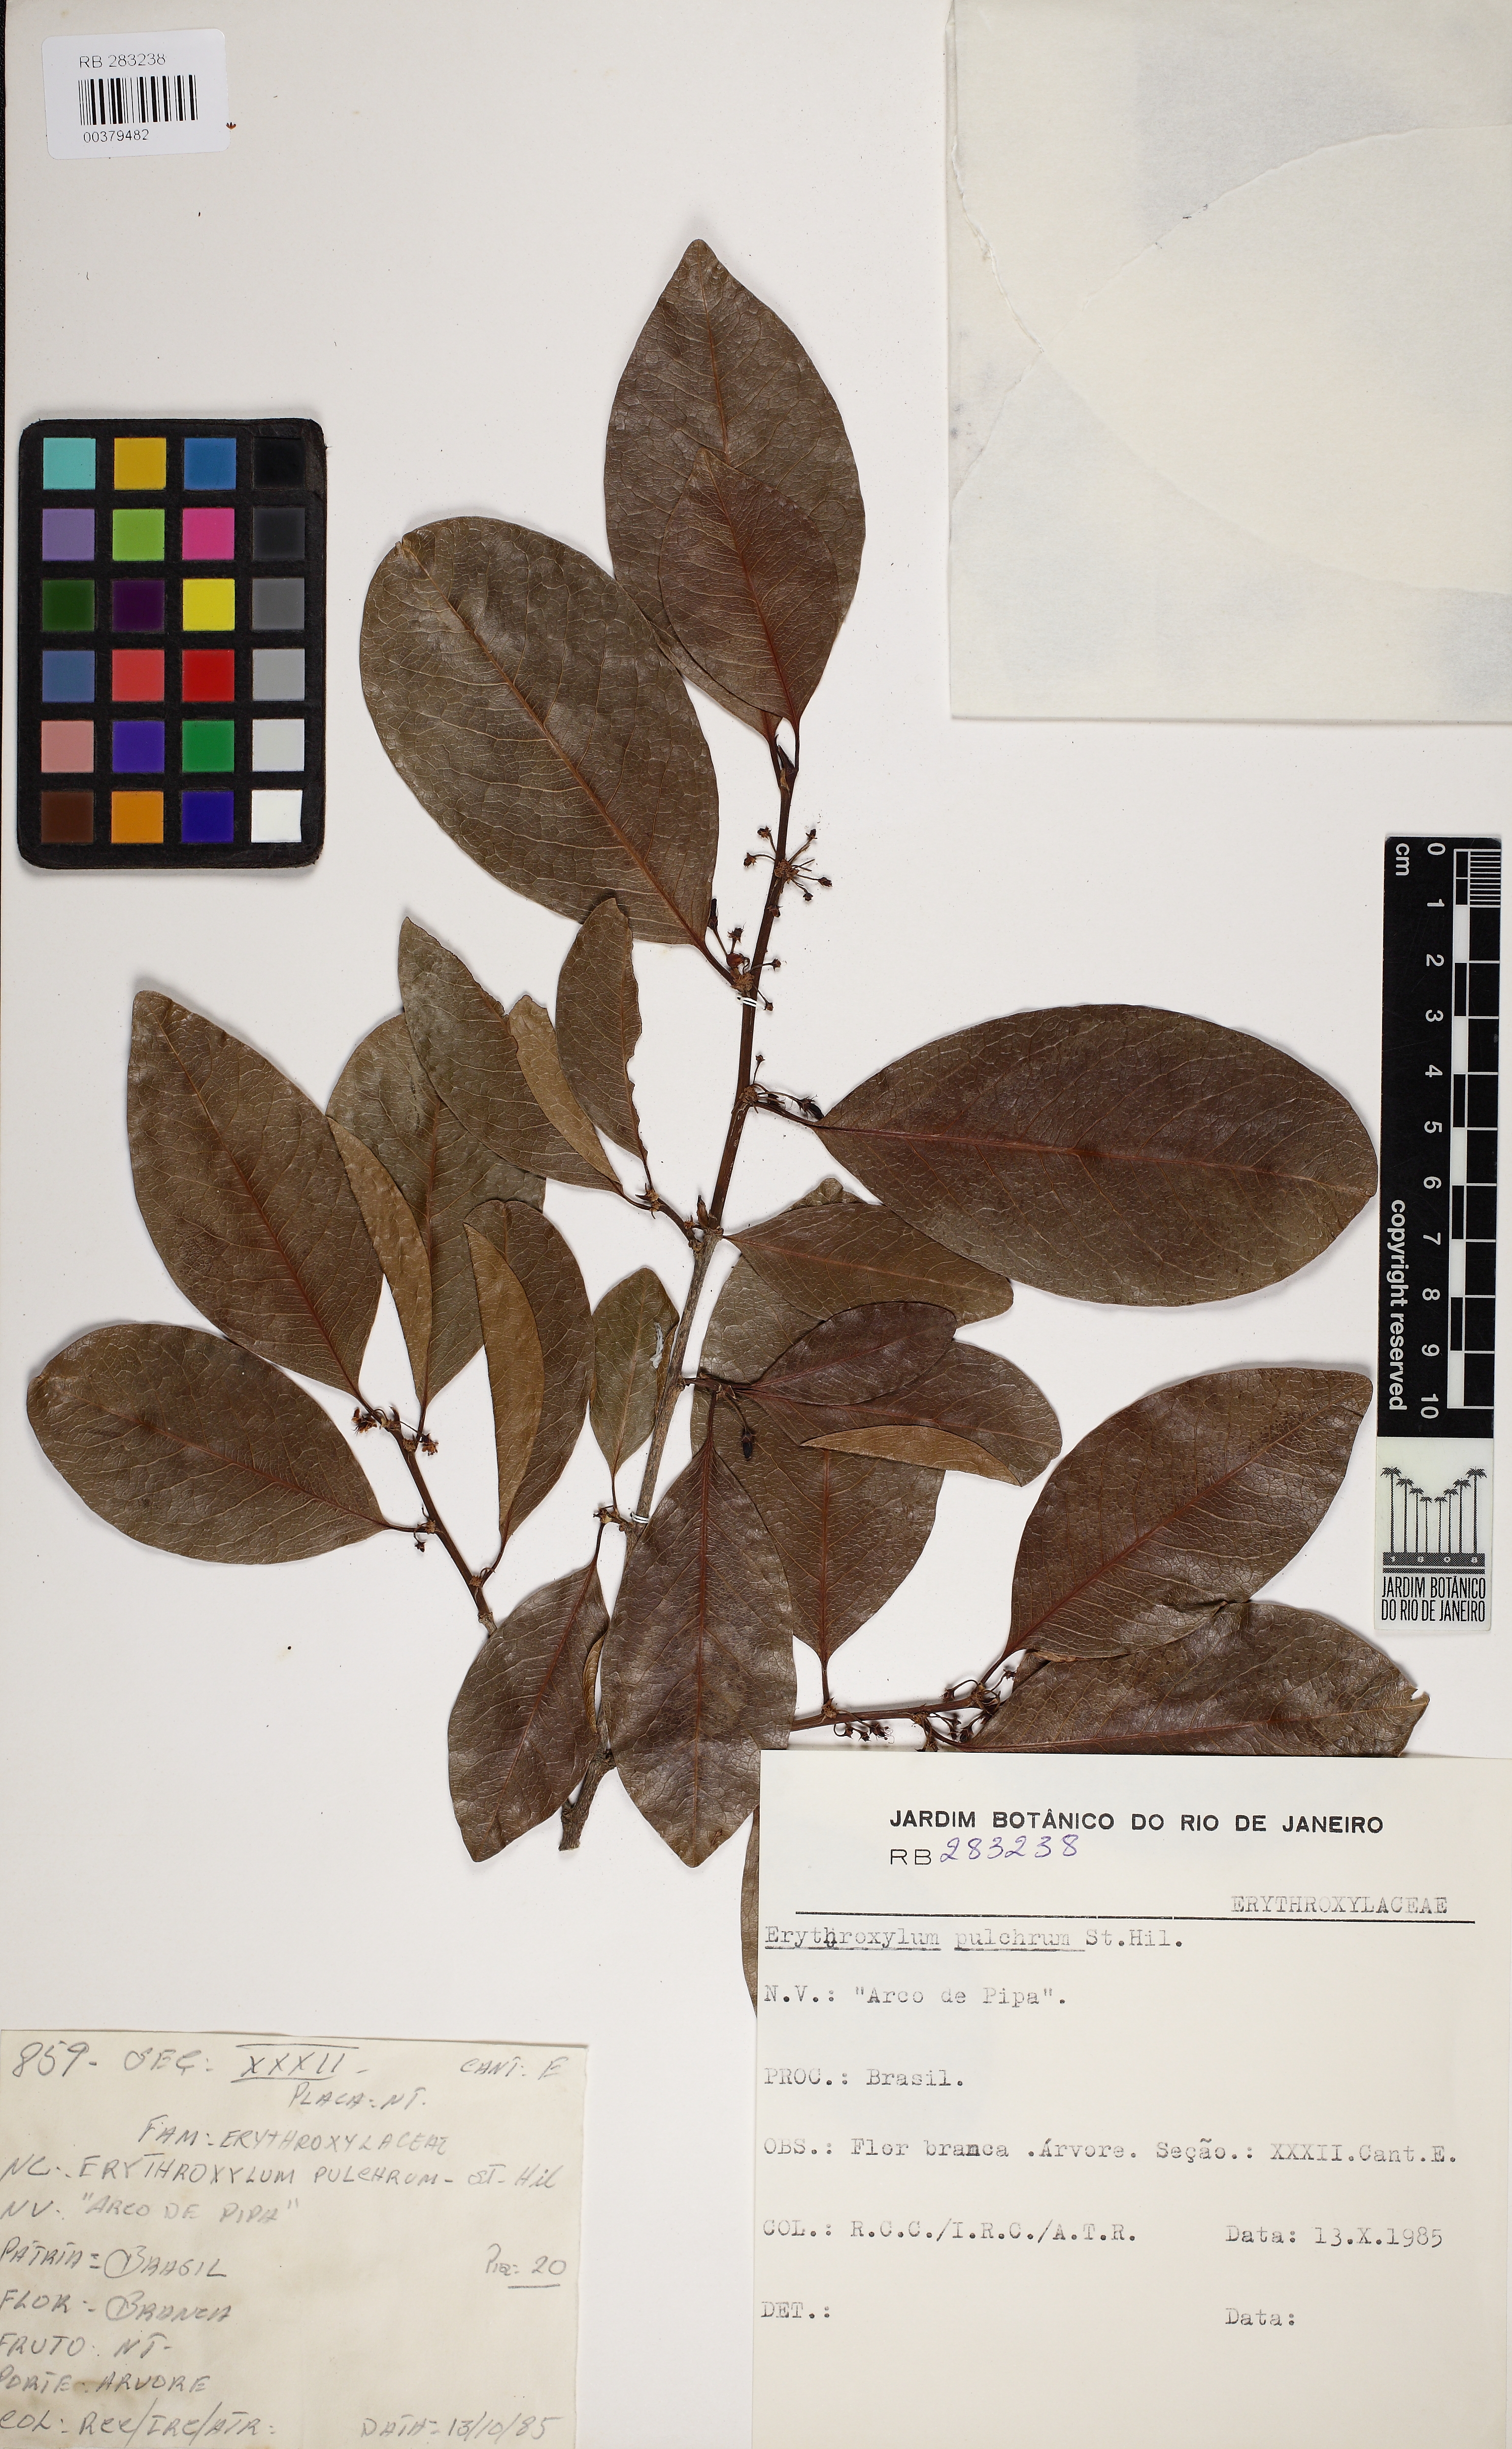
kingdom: Plantae
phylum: Tracheophyta
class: Magnoliopsida
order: Malpighiales
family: Erythroxylaceae
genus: Erythroxylum
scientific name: Erythroxylum pulchrum
